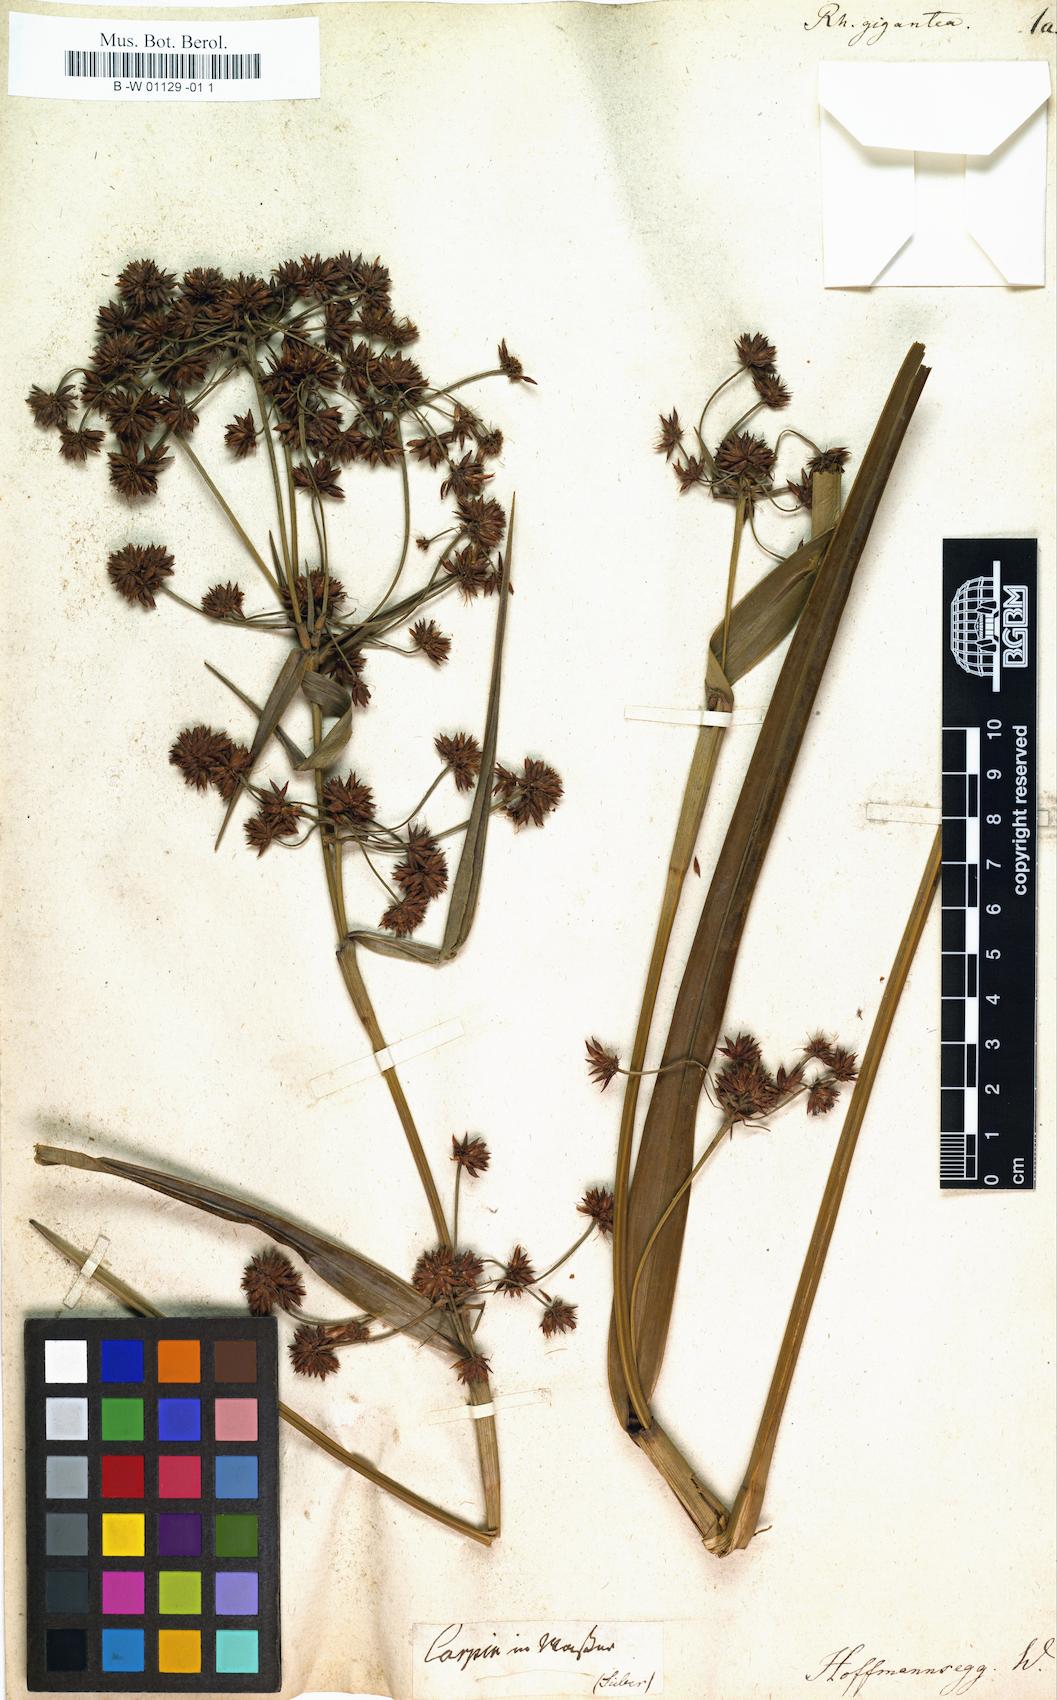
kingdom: Plantae
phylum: Tracheophyta
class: Liliopsida
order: Poales
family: Cyperaceae
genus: Rhynchospora
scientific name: Rhynchospora gigantea
